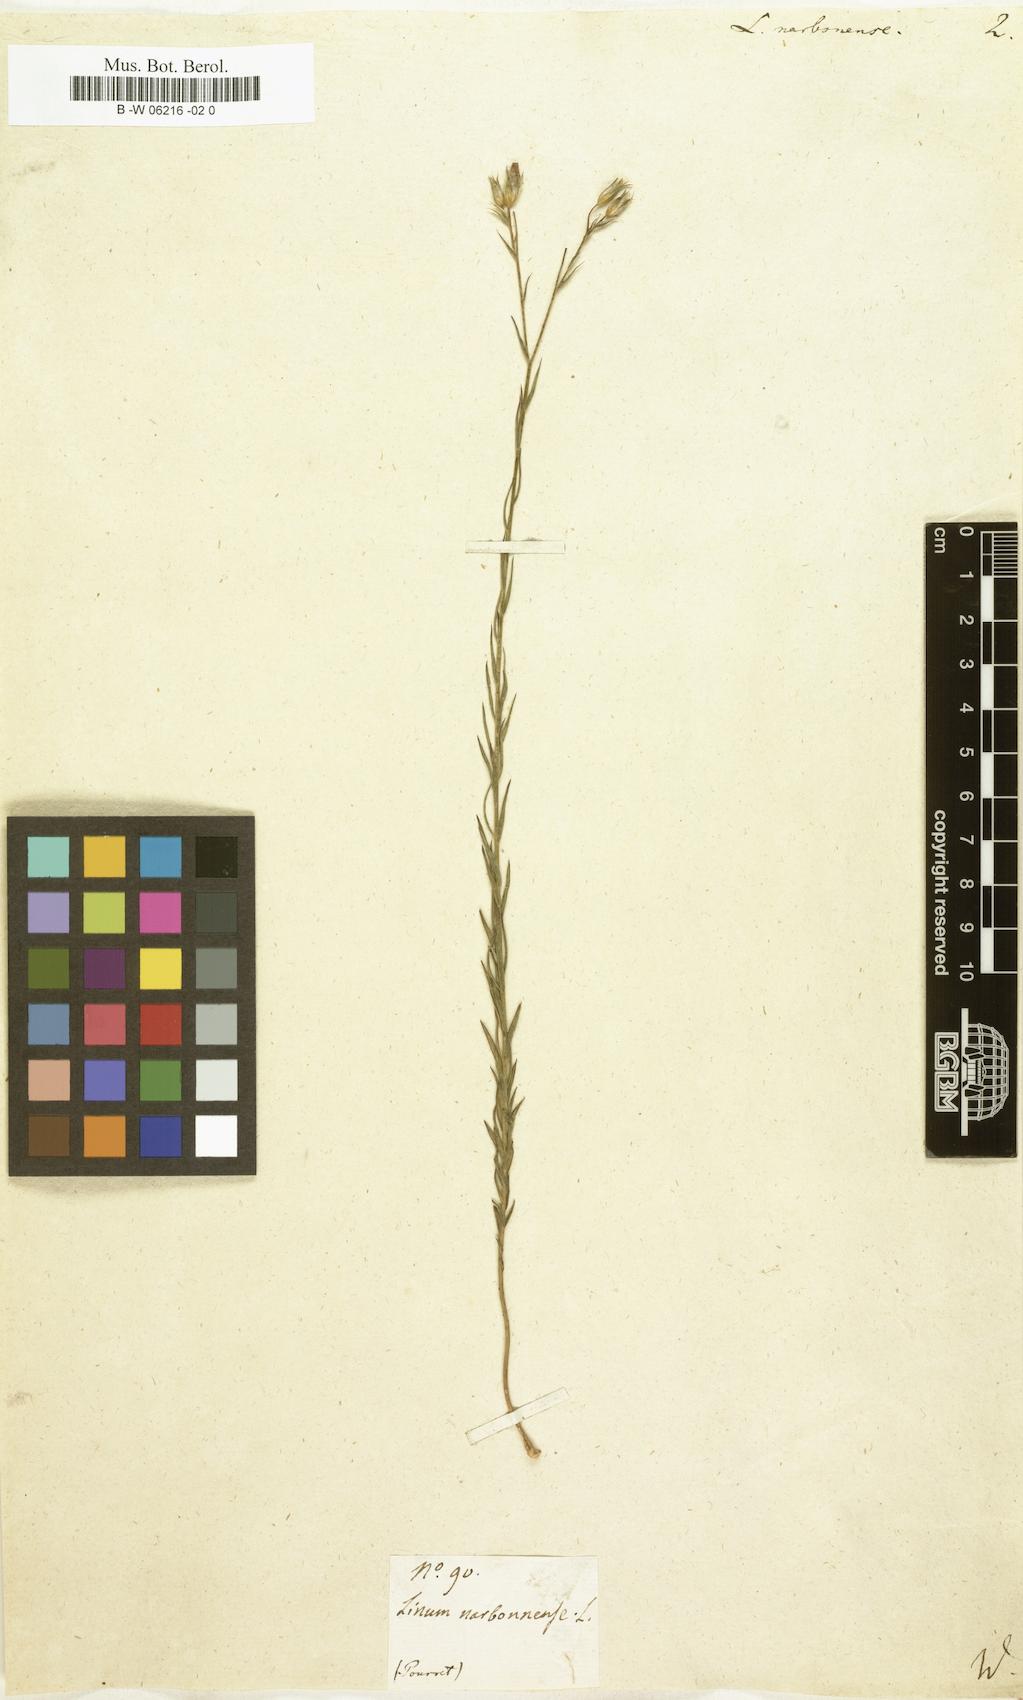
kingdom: Plantae
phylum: Tracheophyta
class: Magnoliopsida
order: Malpighiales
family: Linaceae
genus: Linum
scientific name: Linum narbonense
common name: Flax
